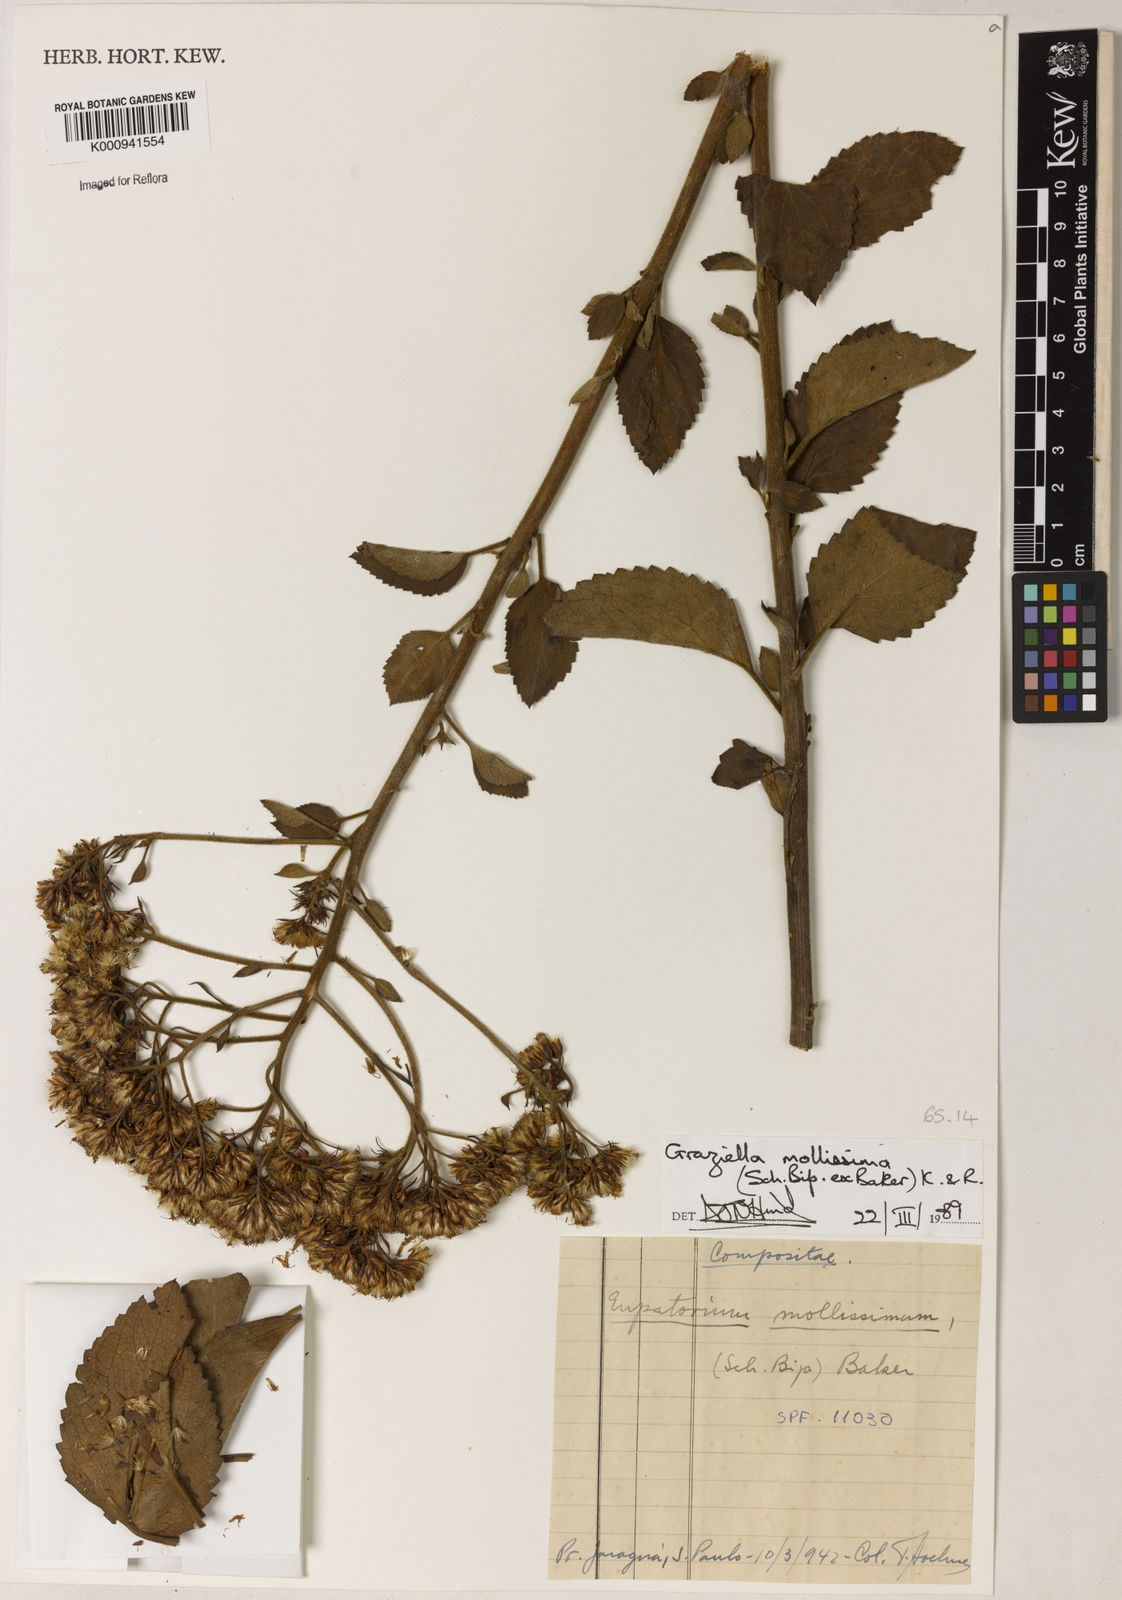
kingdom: Plantae
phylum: Tracheophyta
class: Magnoliopsida
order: Asterales
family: Asteraceae
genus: Grazielia
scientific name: Grazielia mollissima
